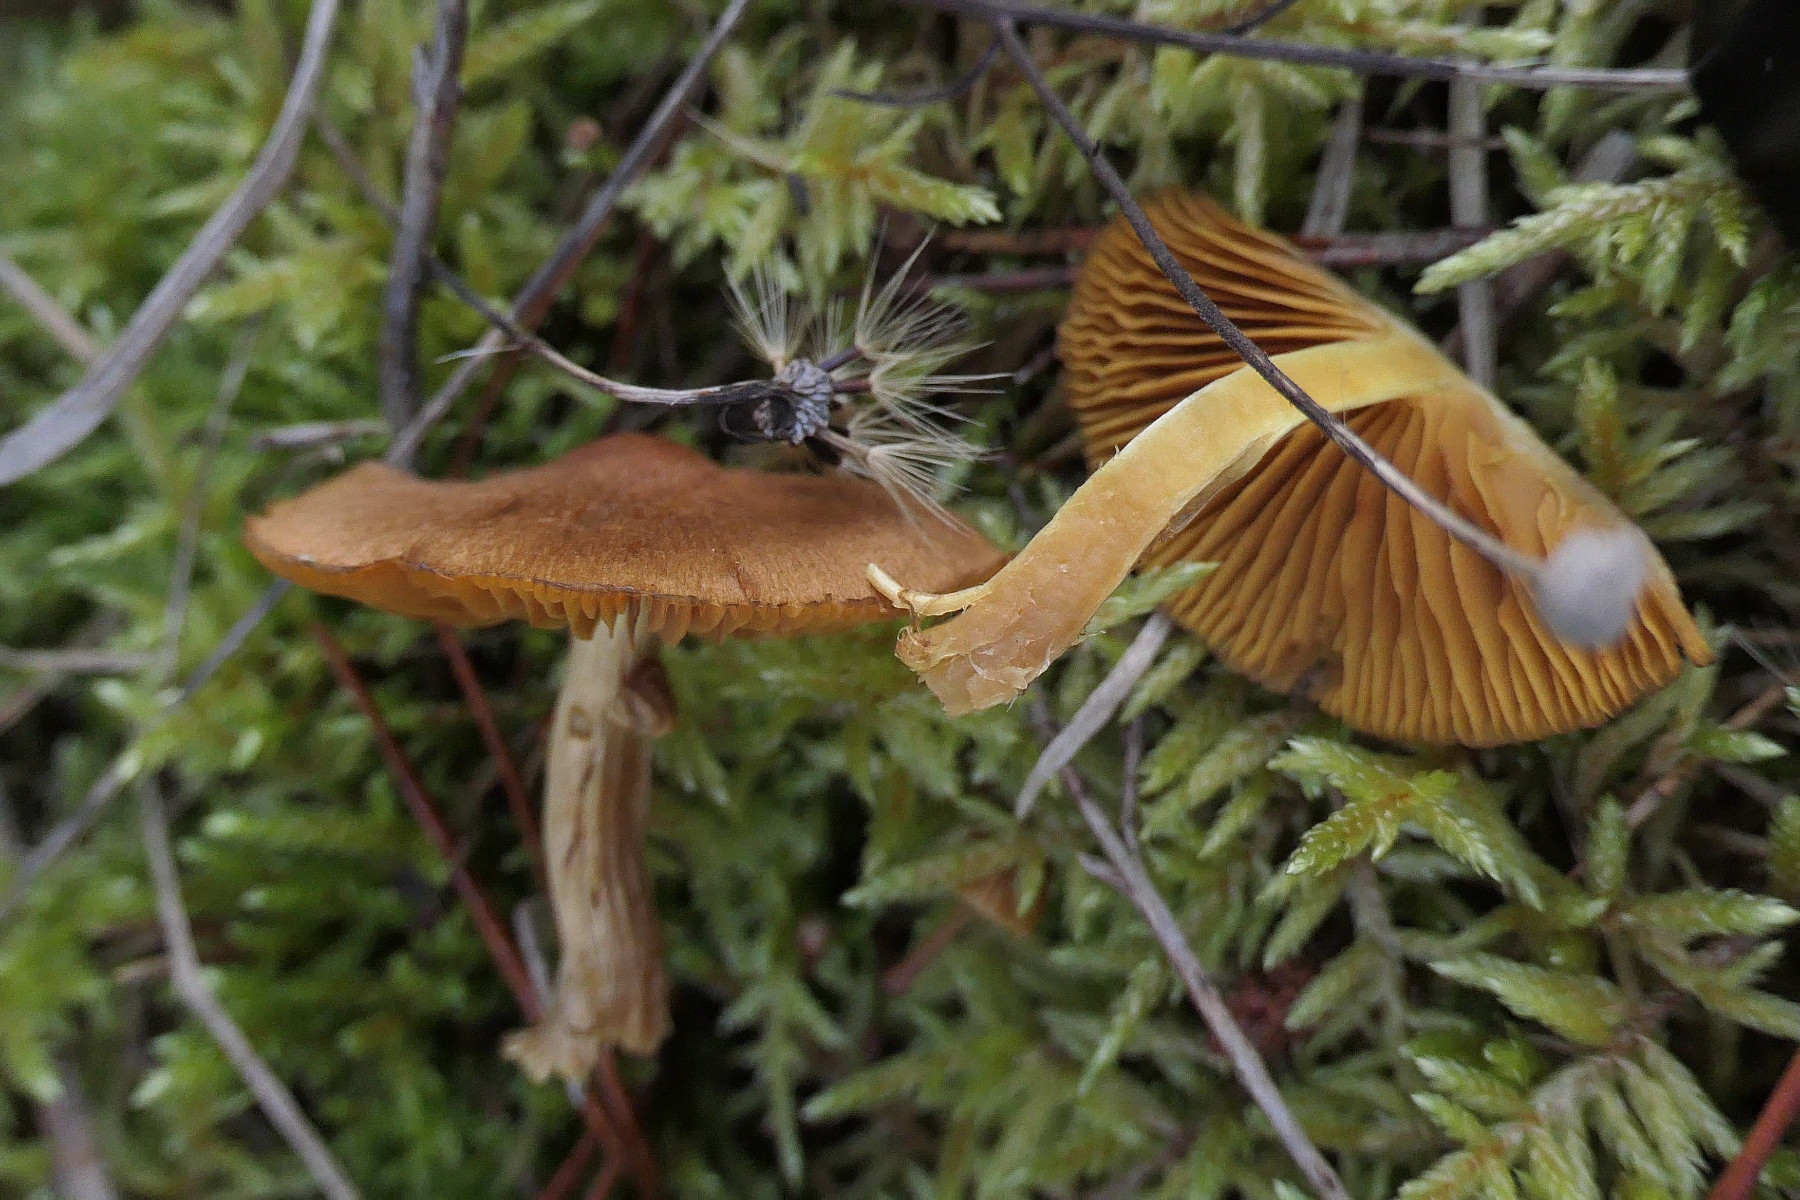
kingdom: Fungi
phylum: Basidiomycota
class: Agaricomycetes
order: Agaricales
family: Cortinariaceae
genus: Cortinarius
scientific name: Cortinarius cinnamomeus
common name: kanel-slørhat
